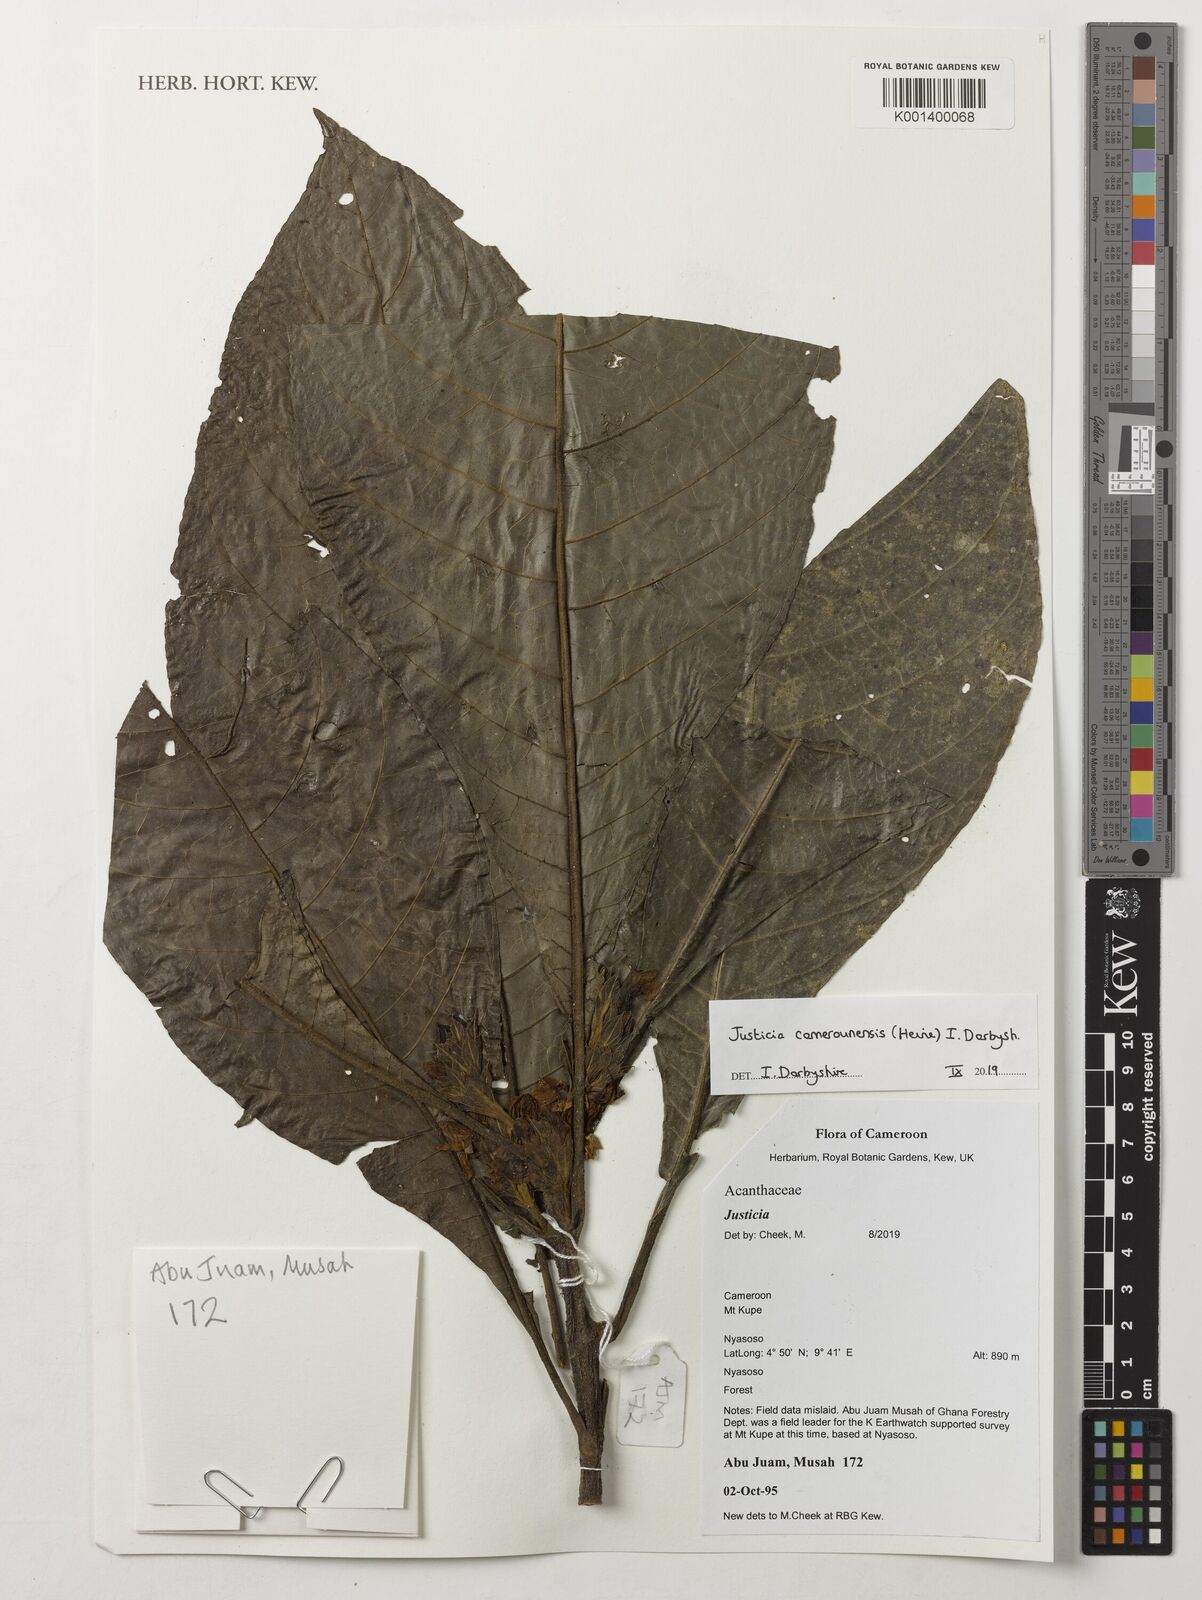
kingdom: Plantae
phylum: Tracheophyta
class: Magnoliopsida
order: Lamiales
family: Acanthaceae
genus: Justicia
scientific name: Justicia camerunensis
